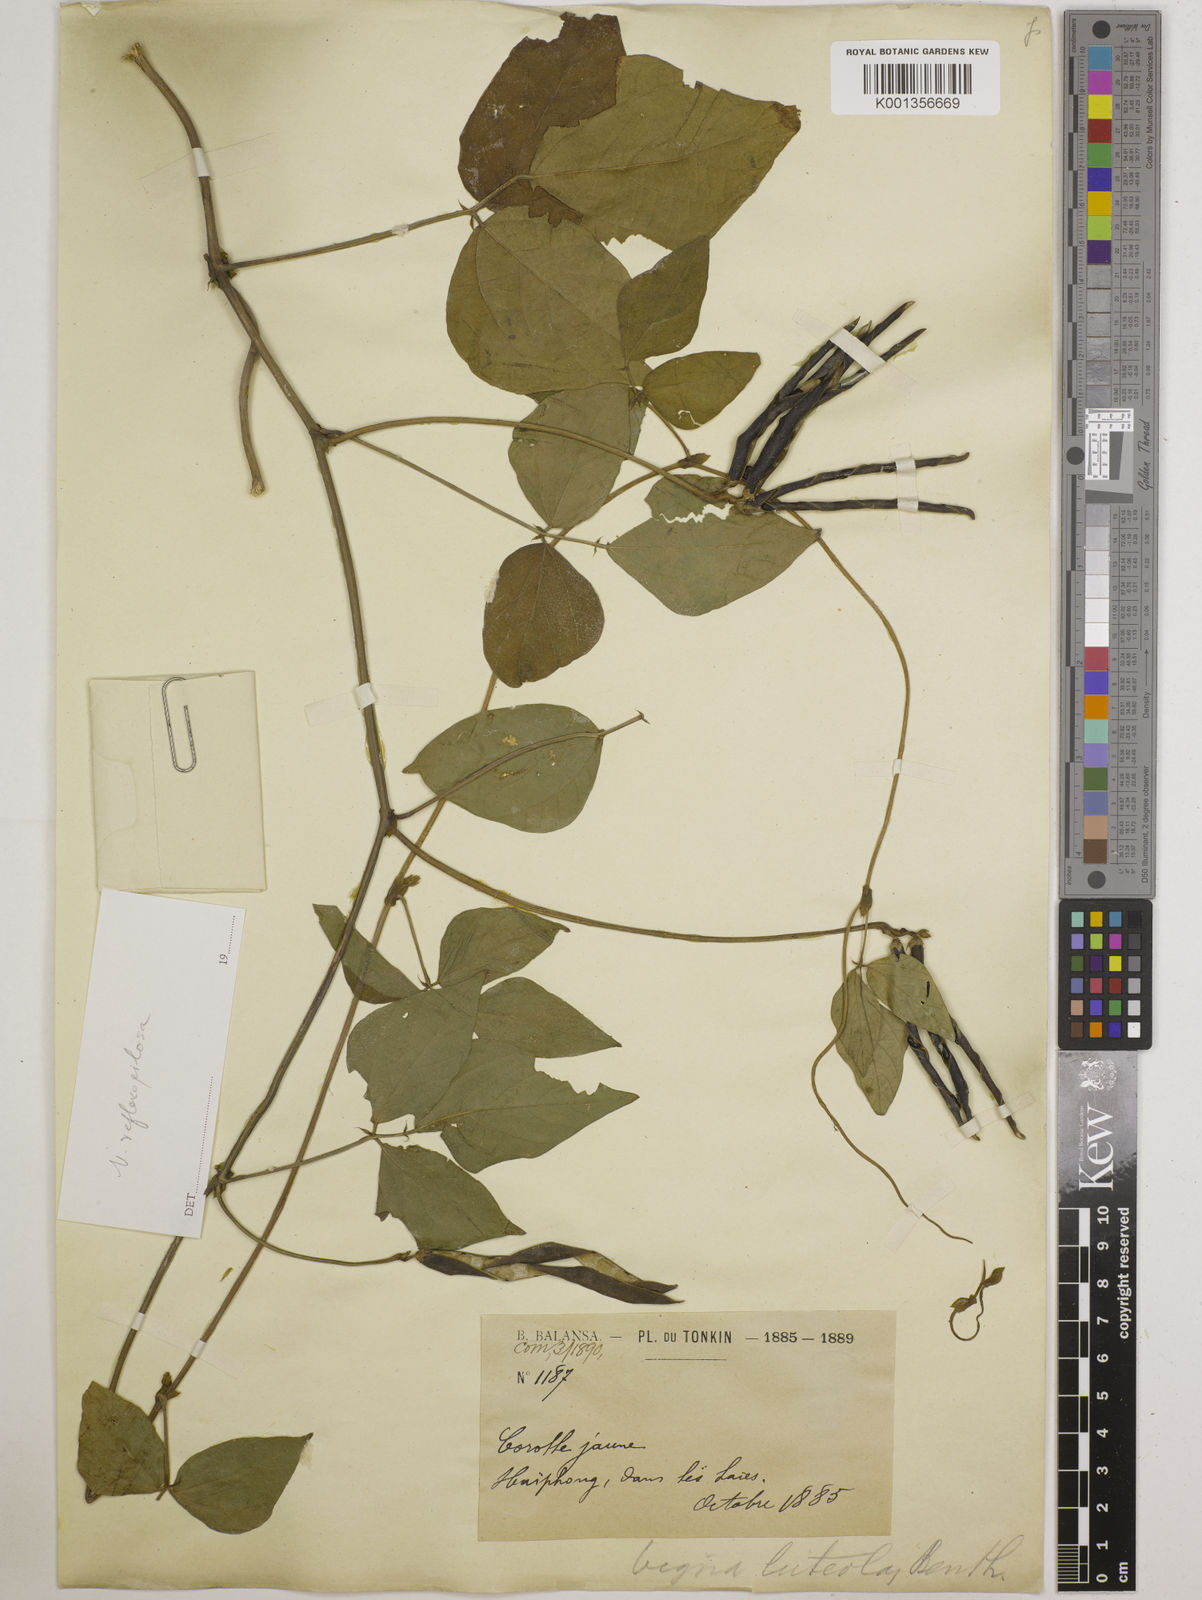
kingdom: Plantae
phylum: Tracheophyta
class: Magnoliopsida
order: Fabales
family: Fabaceae
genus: Vigna
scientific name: Vigna reflexopilosa
